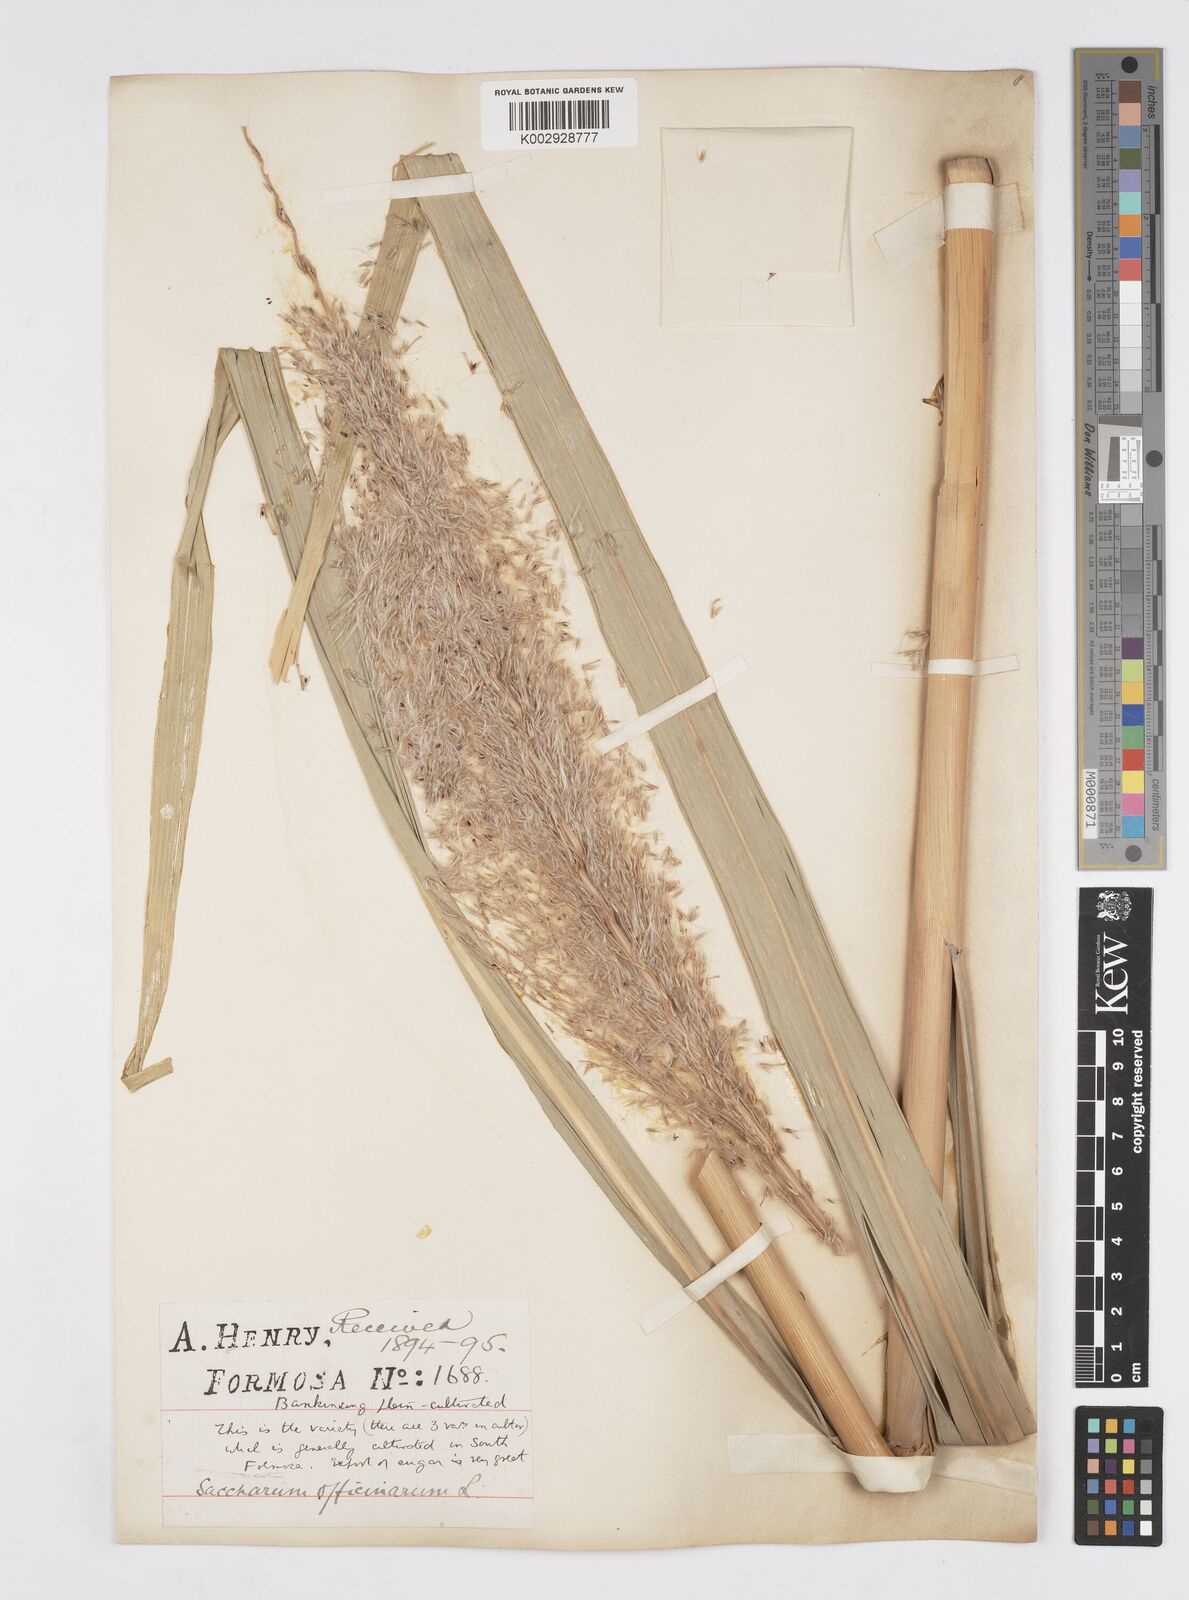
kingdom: Plantae
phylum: Tracheophyta
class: Liliopsida
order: Poales
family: Poaceae
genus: Saccharum
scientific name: Saccharum officinarum
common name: Sugarcane
